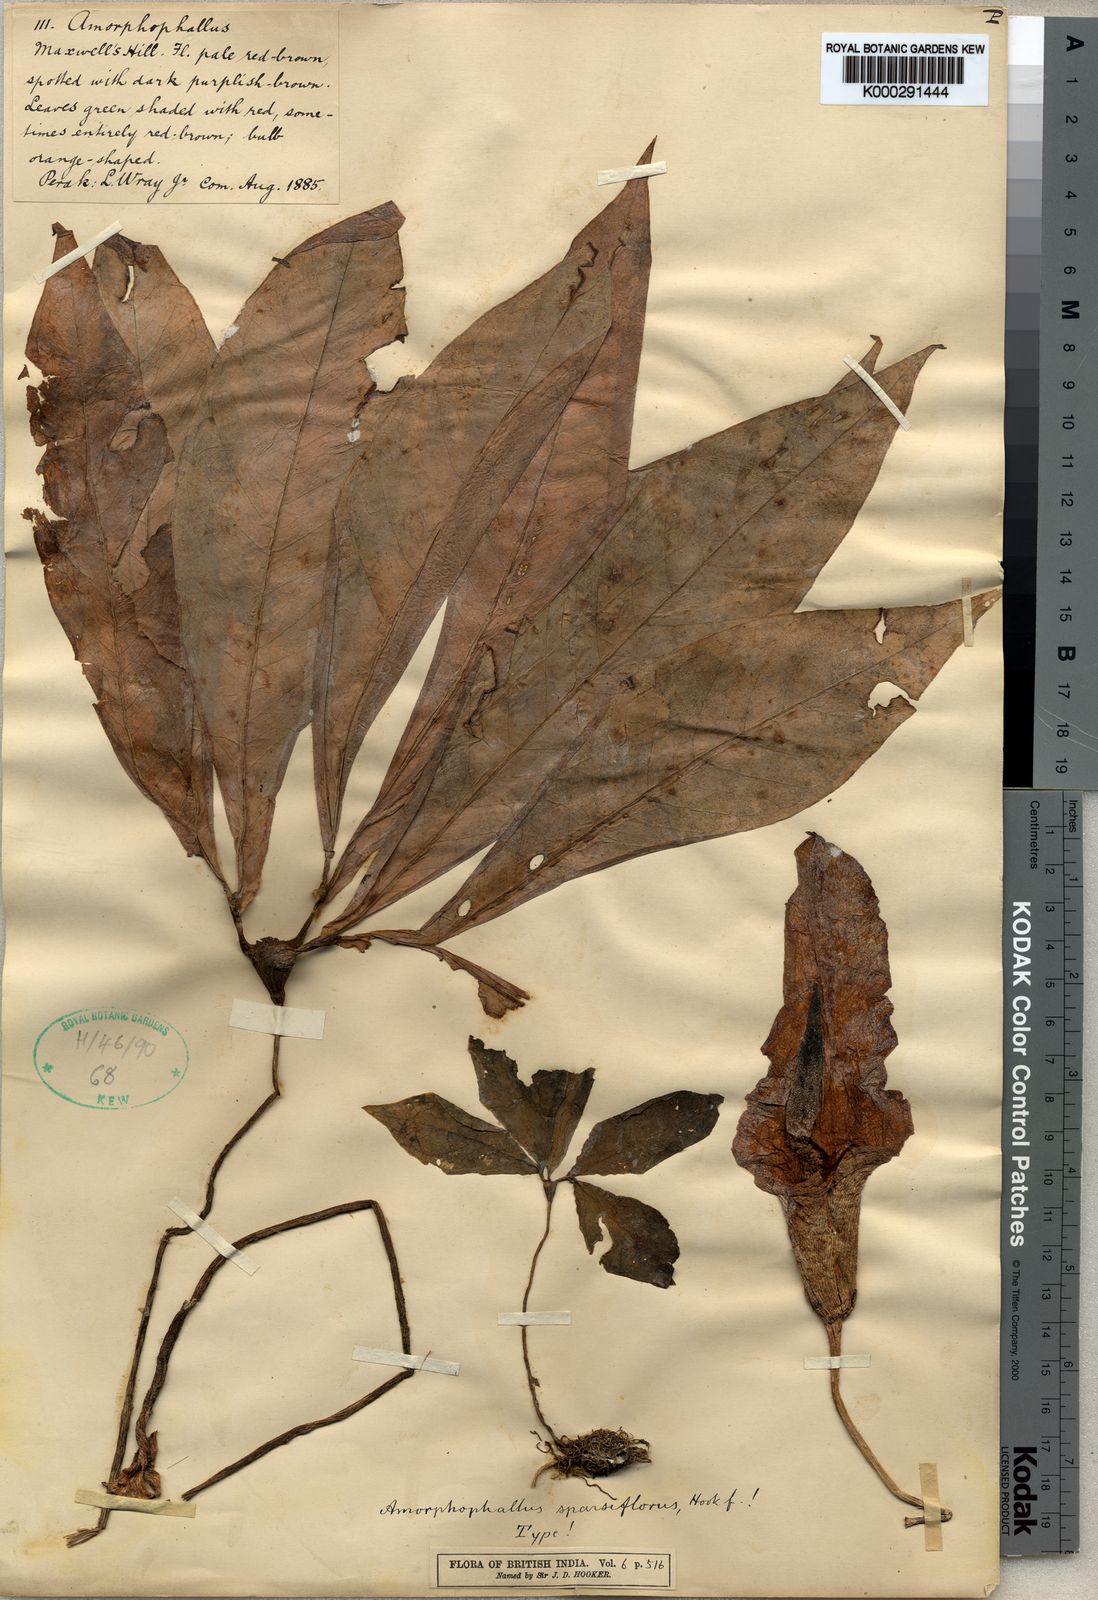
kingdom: Plantae
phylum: Tracheophyta
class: Liliopsida
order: Alismatales
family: Araceae
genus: Amorphophallus
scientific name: Amorphophallus sparsiflorus
